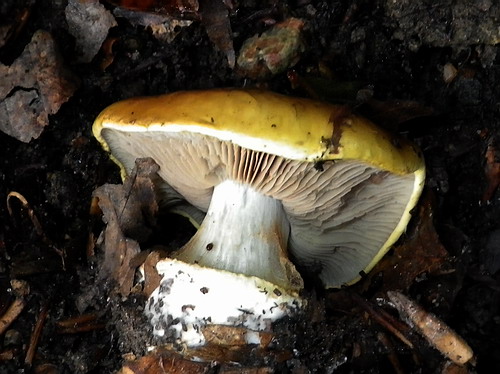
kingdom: Fungi
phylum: Basidiomycota
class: Agaricomycetes
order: Agaricales
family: Cortinariaceae
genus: Cortinarius
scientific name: Cortinarius bergeronii
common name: prægtig slørhat
